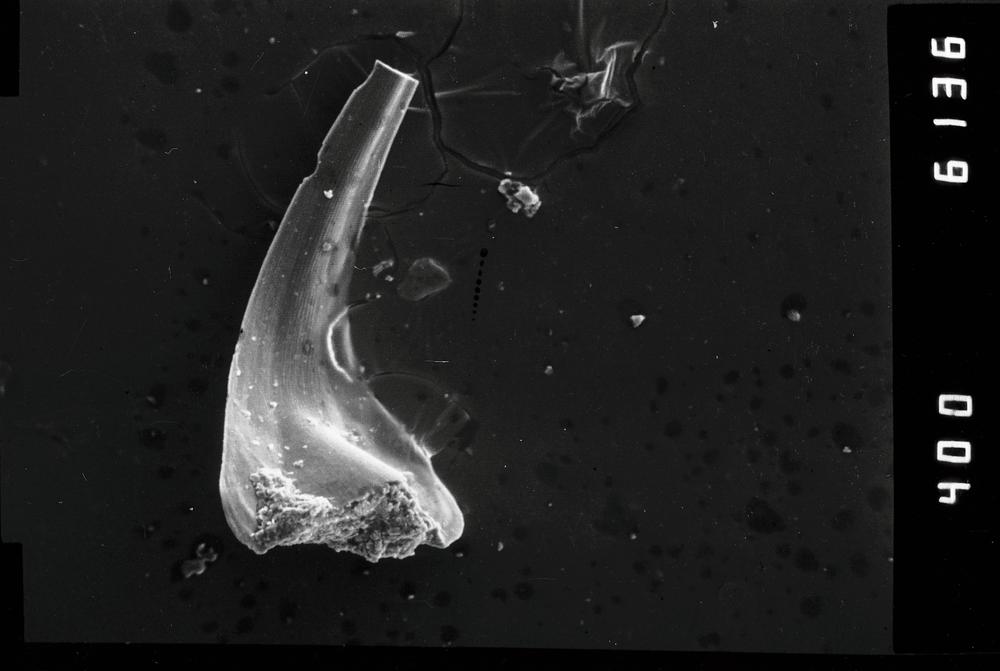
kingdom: Animalia
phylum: Chordata
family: Oistodontidae
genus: Rossodus
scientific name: Rossodus
